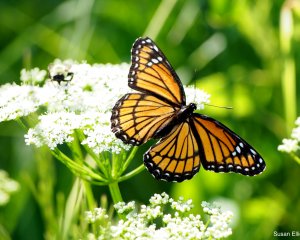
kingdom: Animalia
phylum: Arthropoda
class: Insecta
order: Lepidoptera
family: Nymphalidae
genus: Limenitis
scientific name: Limenitis archippus
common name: Viceroy
